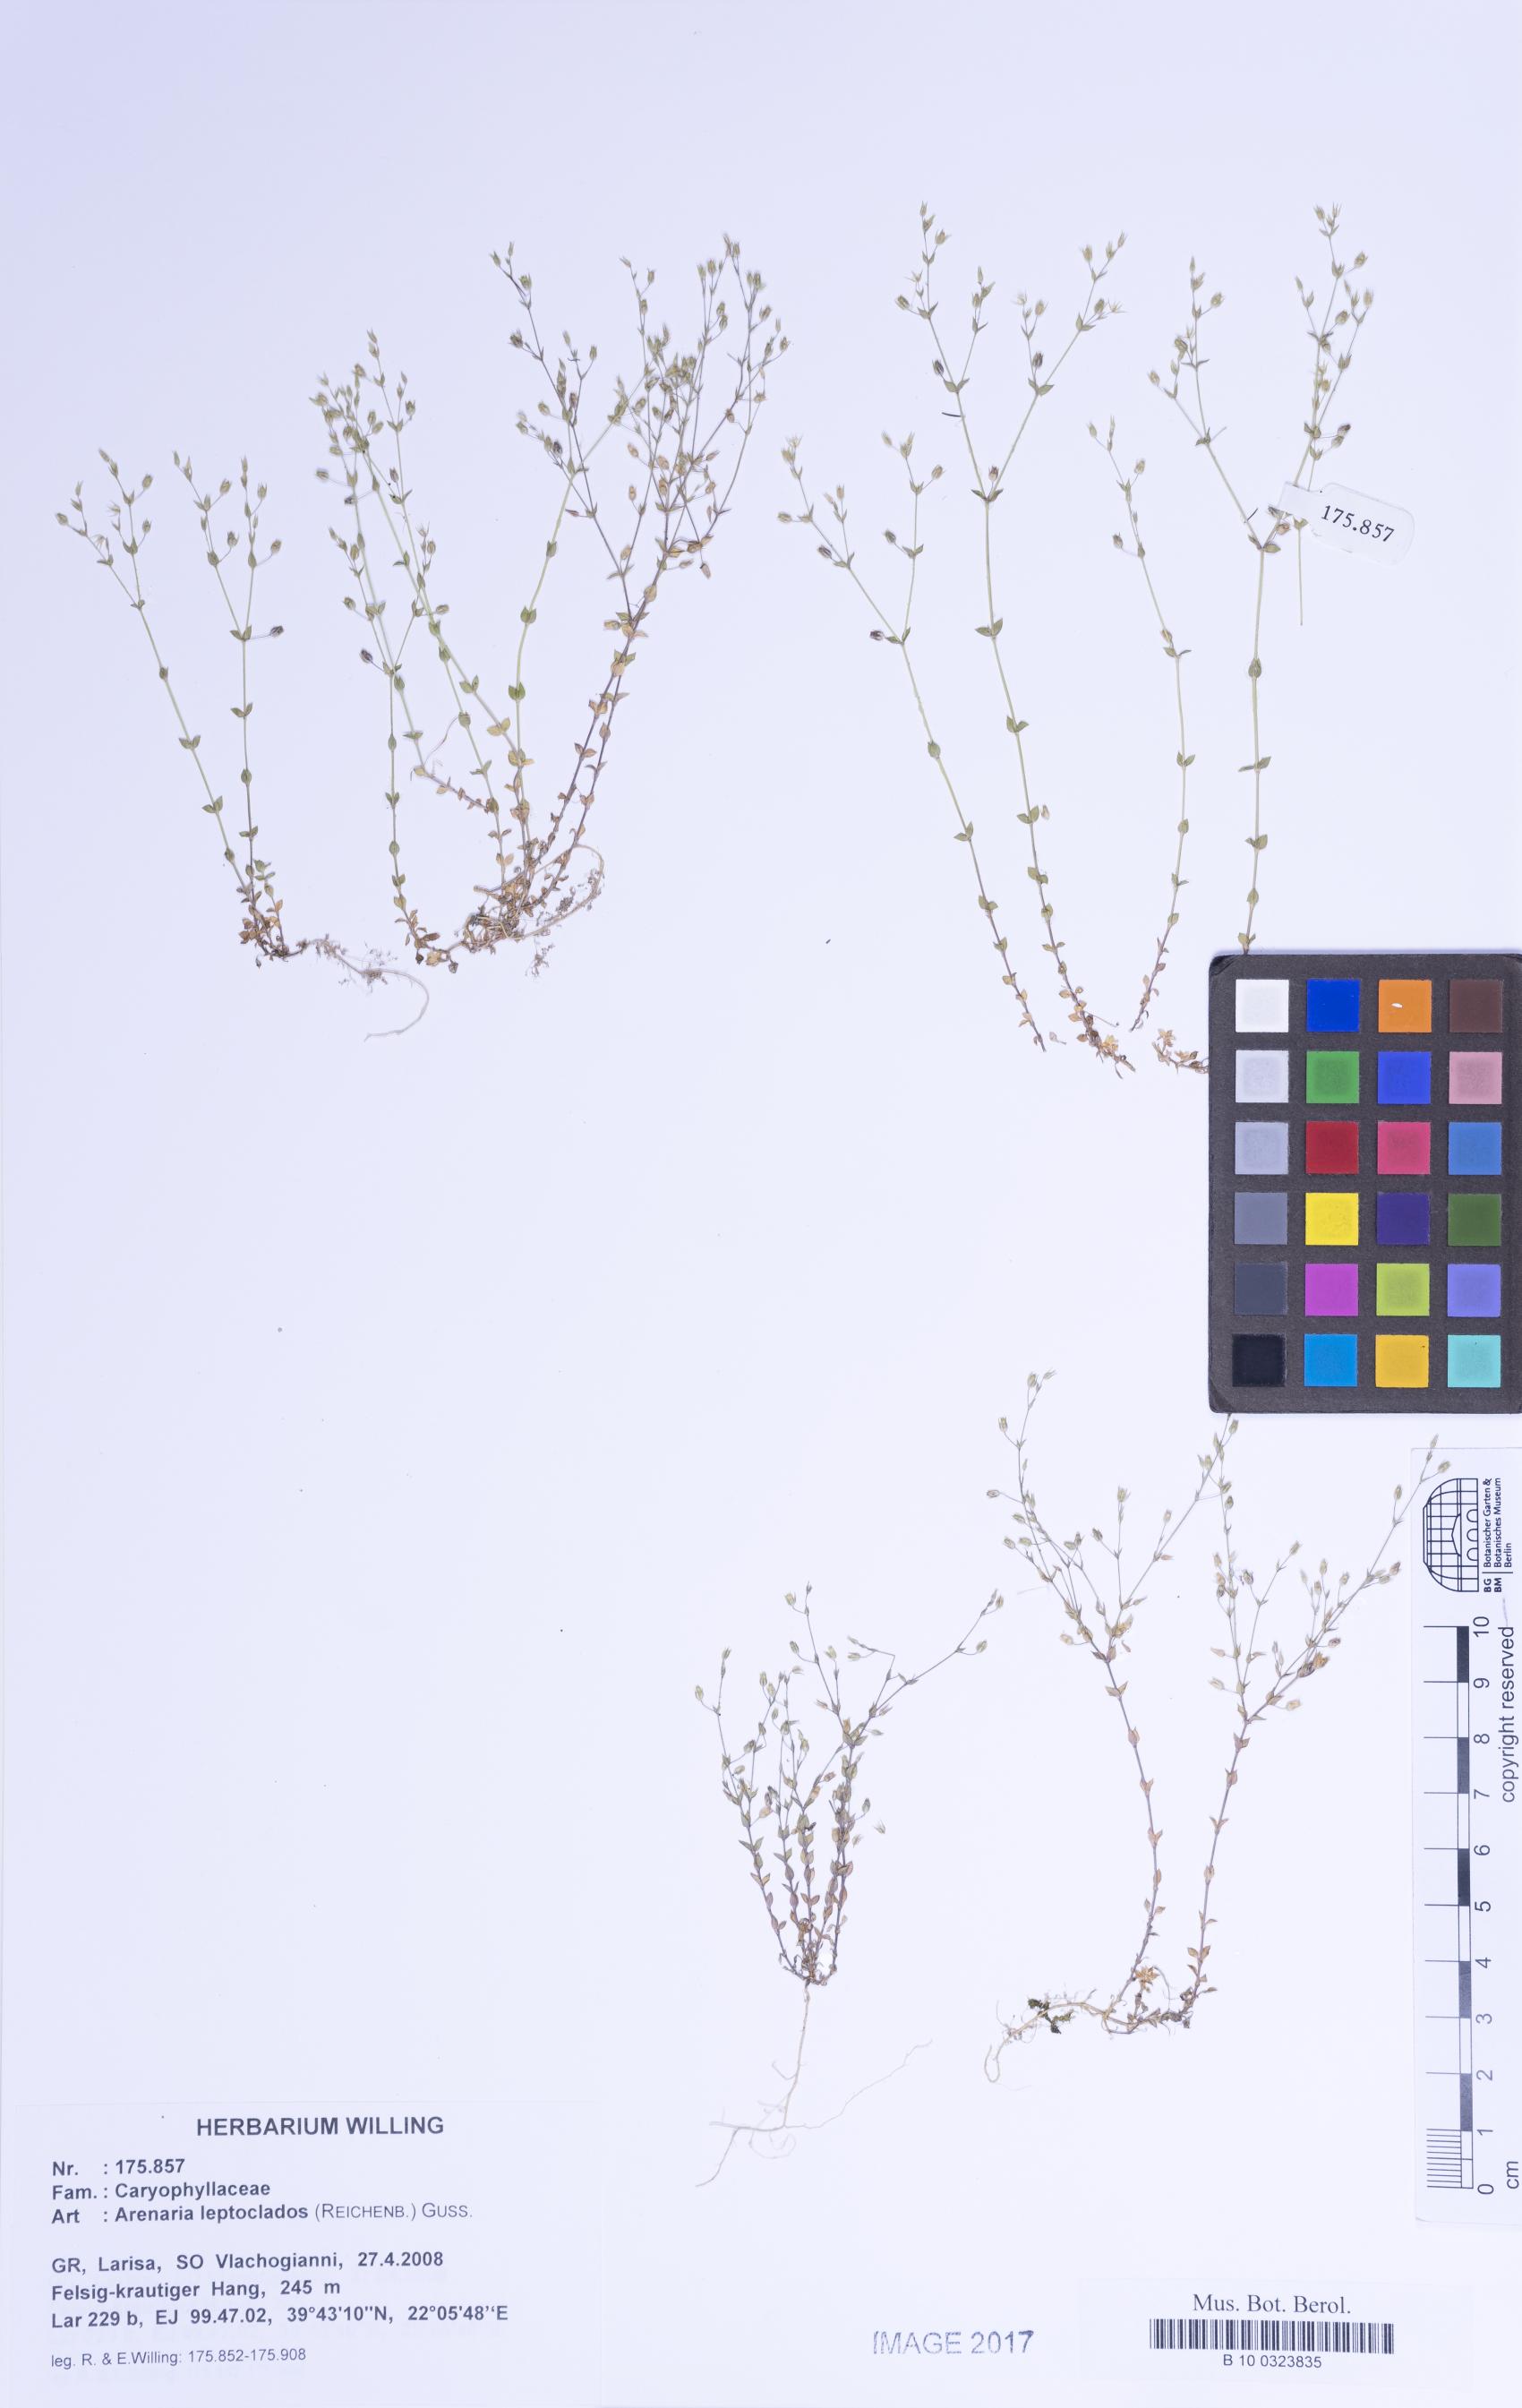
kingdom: Plantae
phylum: Tracheophyta
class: Magnoliopsida
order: Caryophyllales
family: Caryophyllaceae
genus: Arenaria
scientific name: Arenaria leptoclados
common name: Thyme-leaved sandwort
